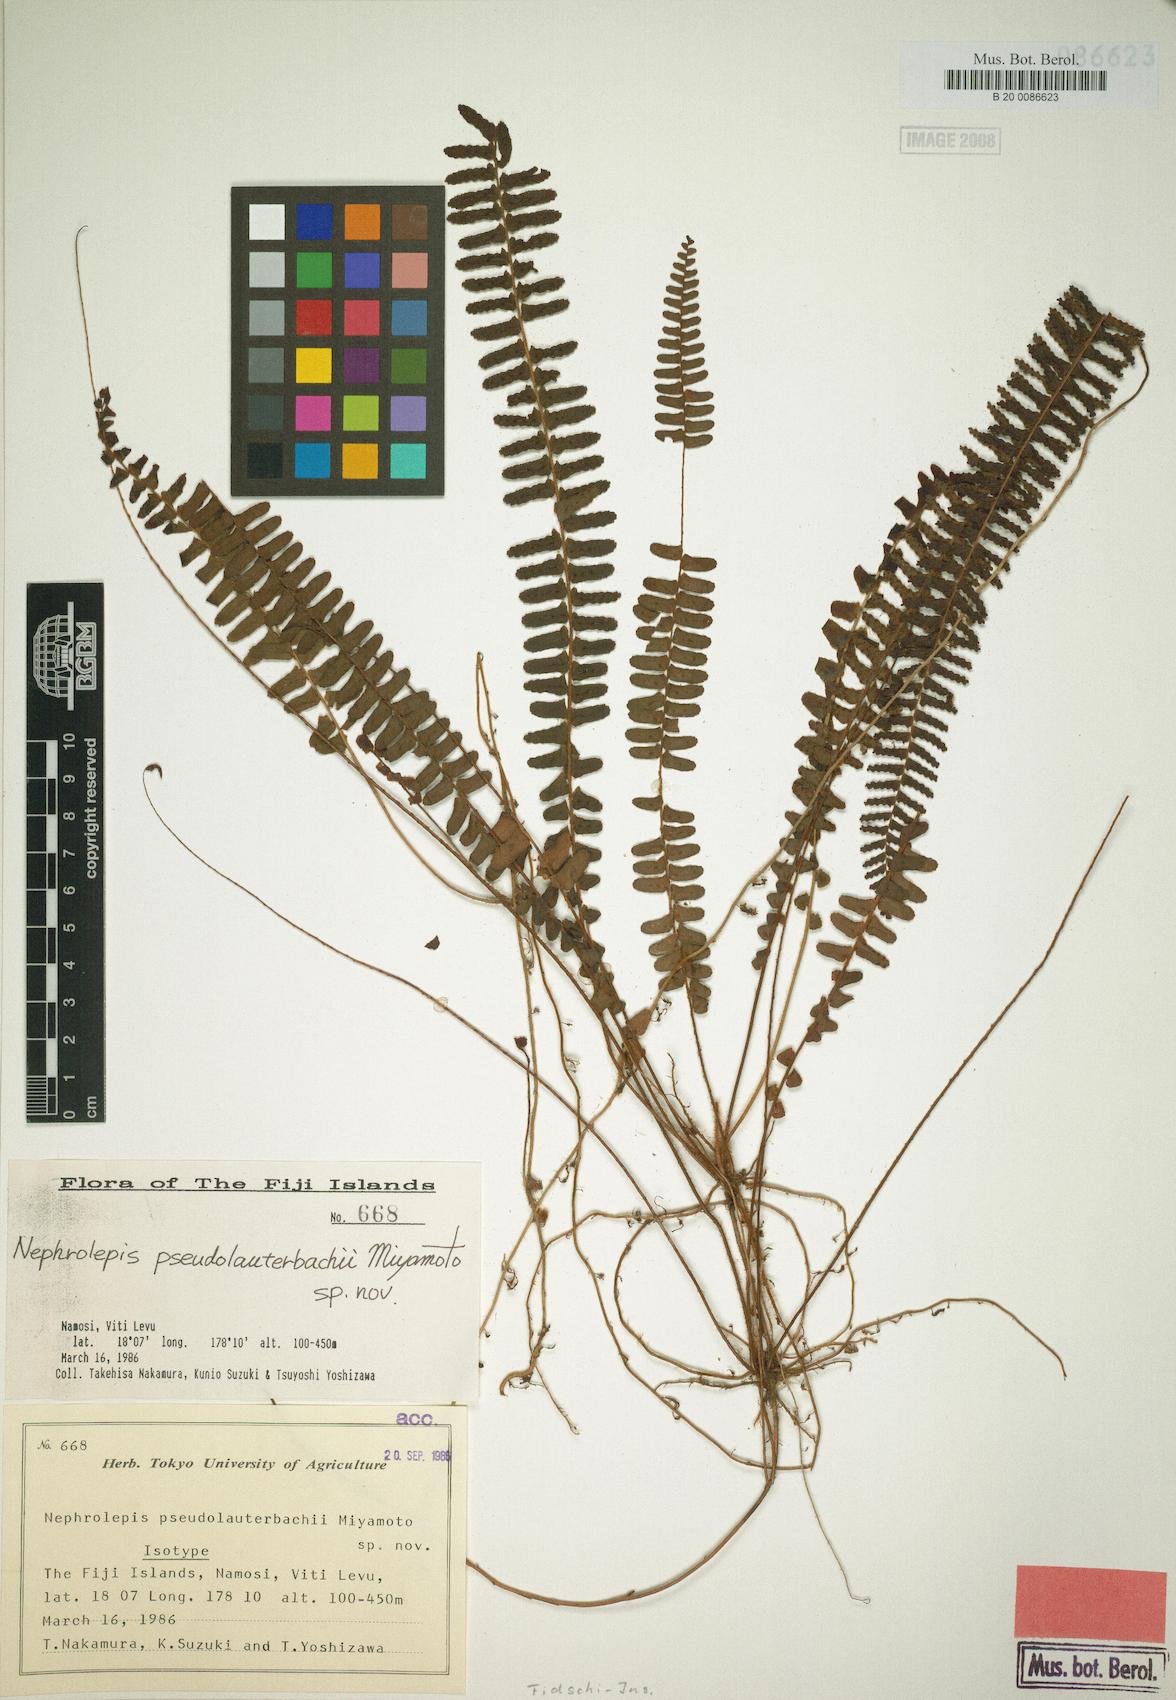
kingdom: Plantae
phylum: Tracheophyta
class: Polypodiopsida
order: Polypodiales
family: Nephrolepidaceae
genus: Nephrolepis
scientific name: Nephrolepis cordifolia
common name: Narrow swordfern
